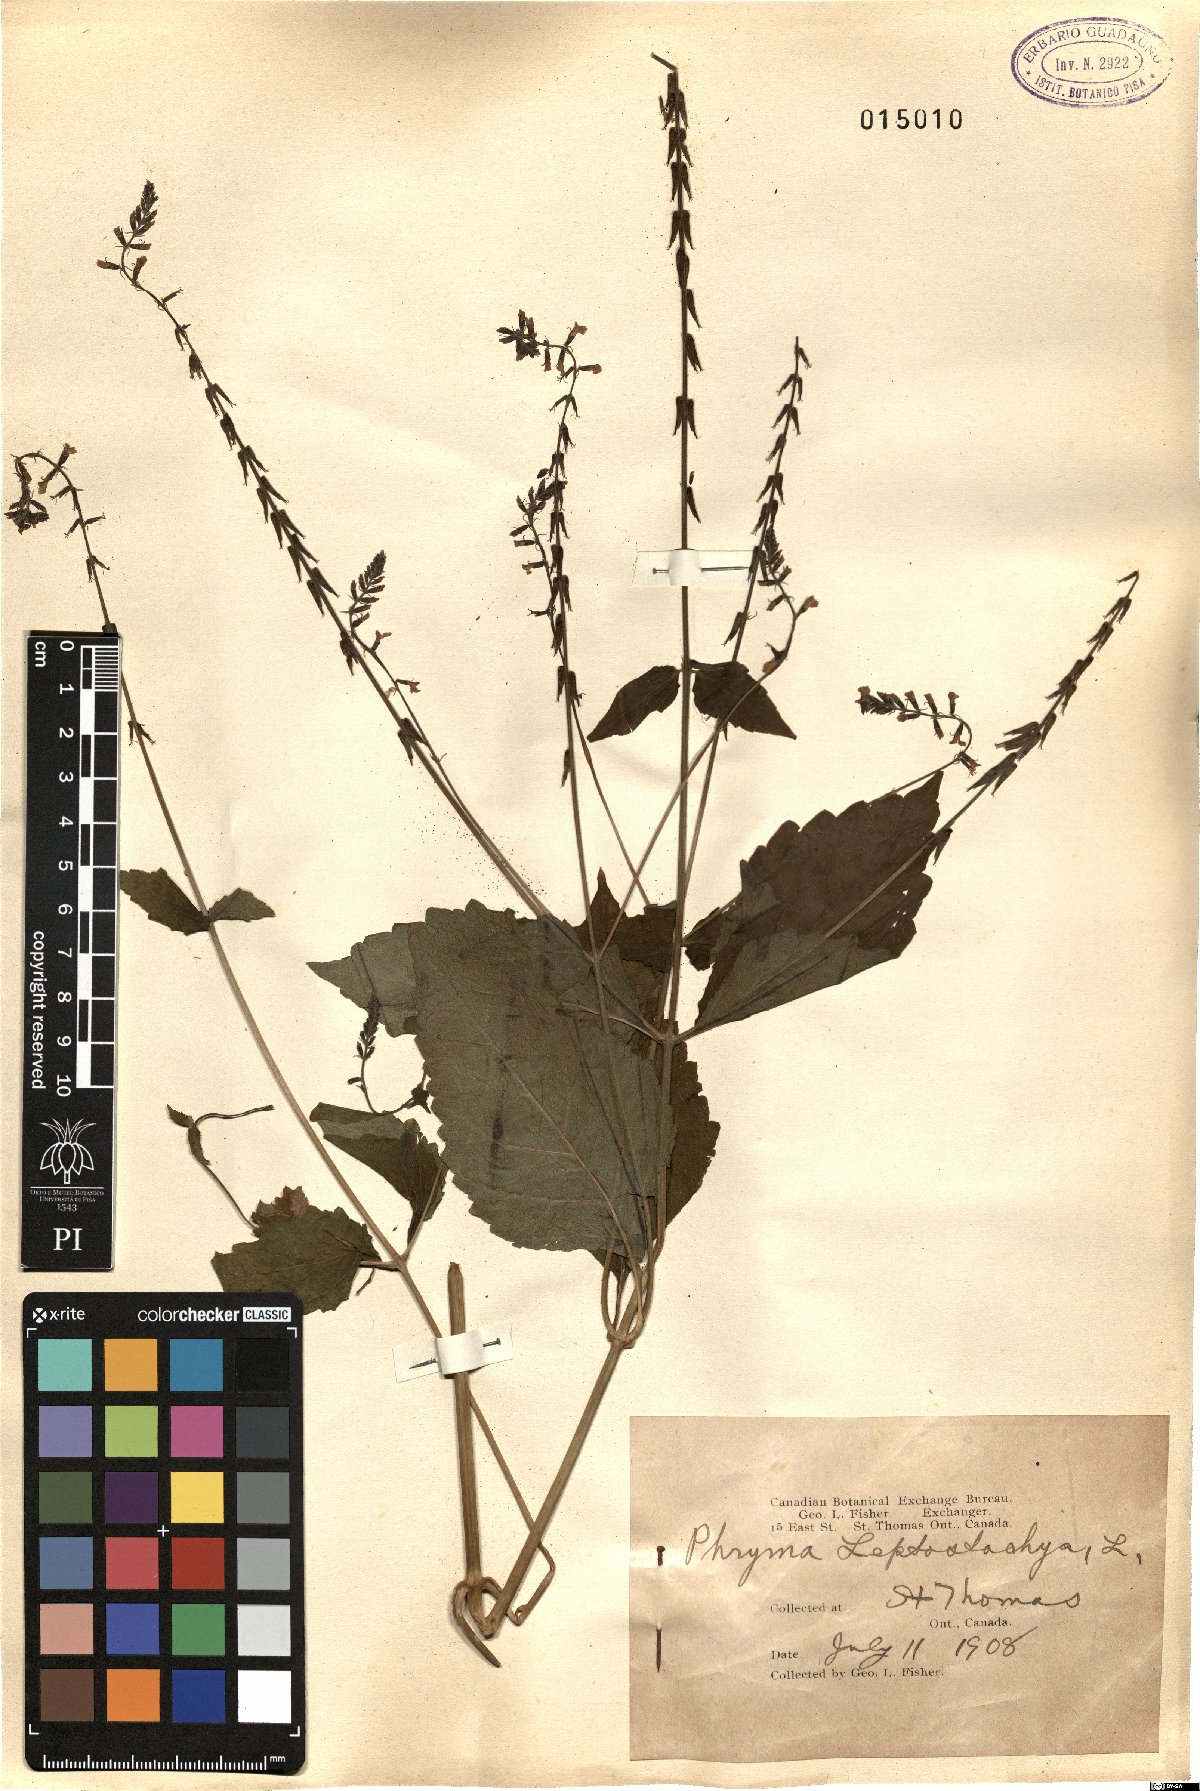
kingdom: Plantae
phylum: Tracheophyta
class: Magnoliopsida
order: Lamiales
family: Phrymaceae
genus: Phryma
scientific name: Phryma leptostachya
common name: American lopseed
